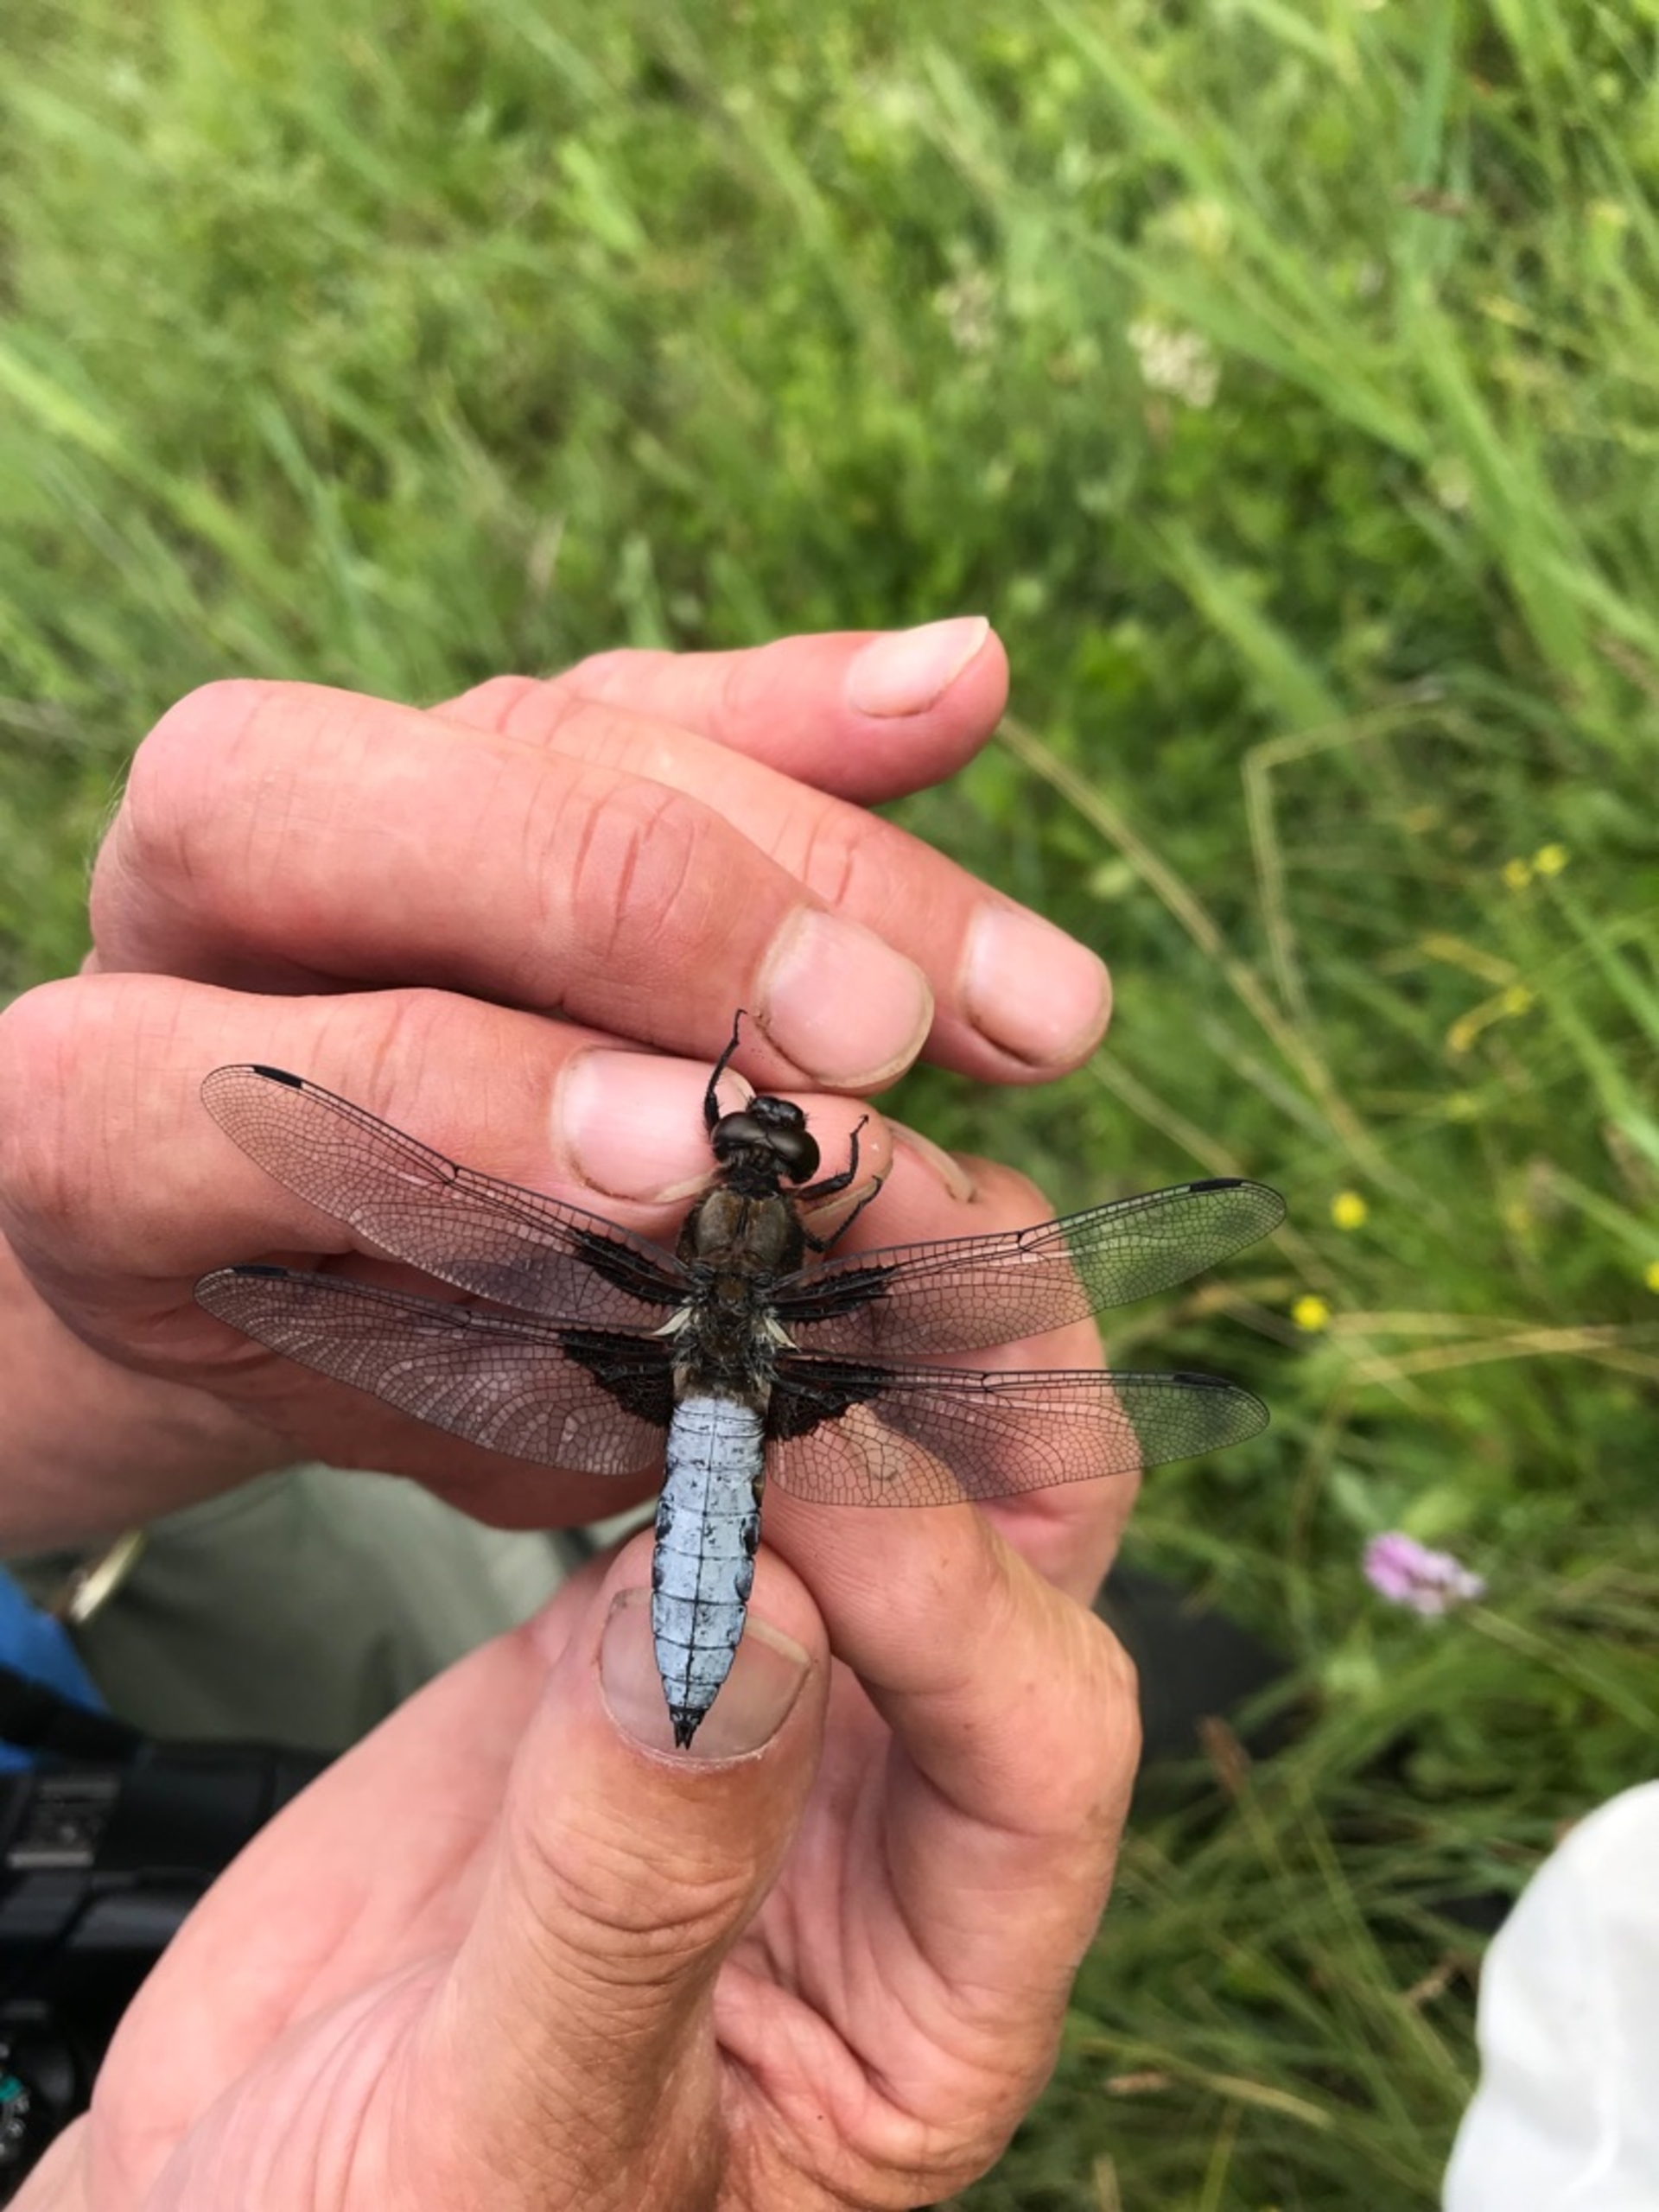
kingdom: Animalia
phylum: Arthropoda
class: Insecta
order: Odonata
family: Libellulidae
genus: Libellula
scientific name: Libellula depressa
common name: Blå libel
